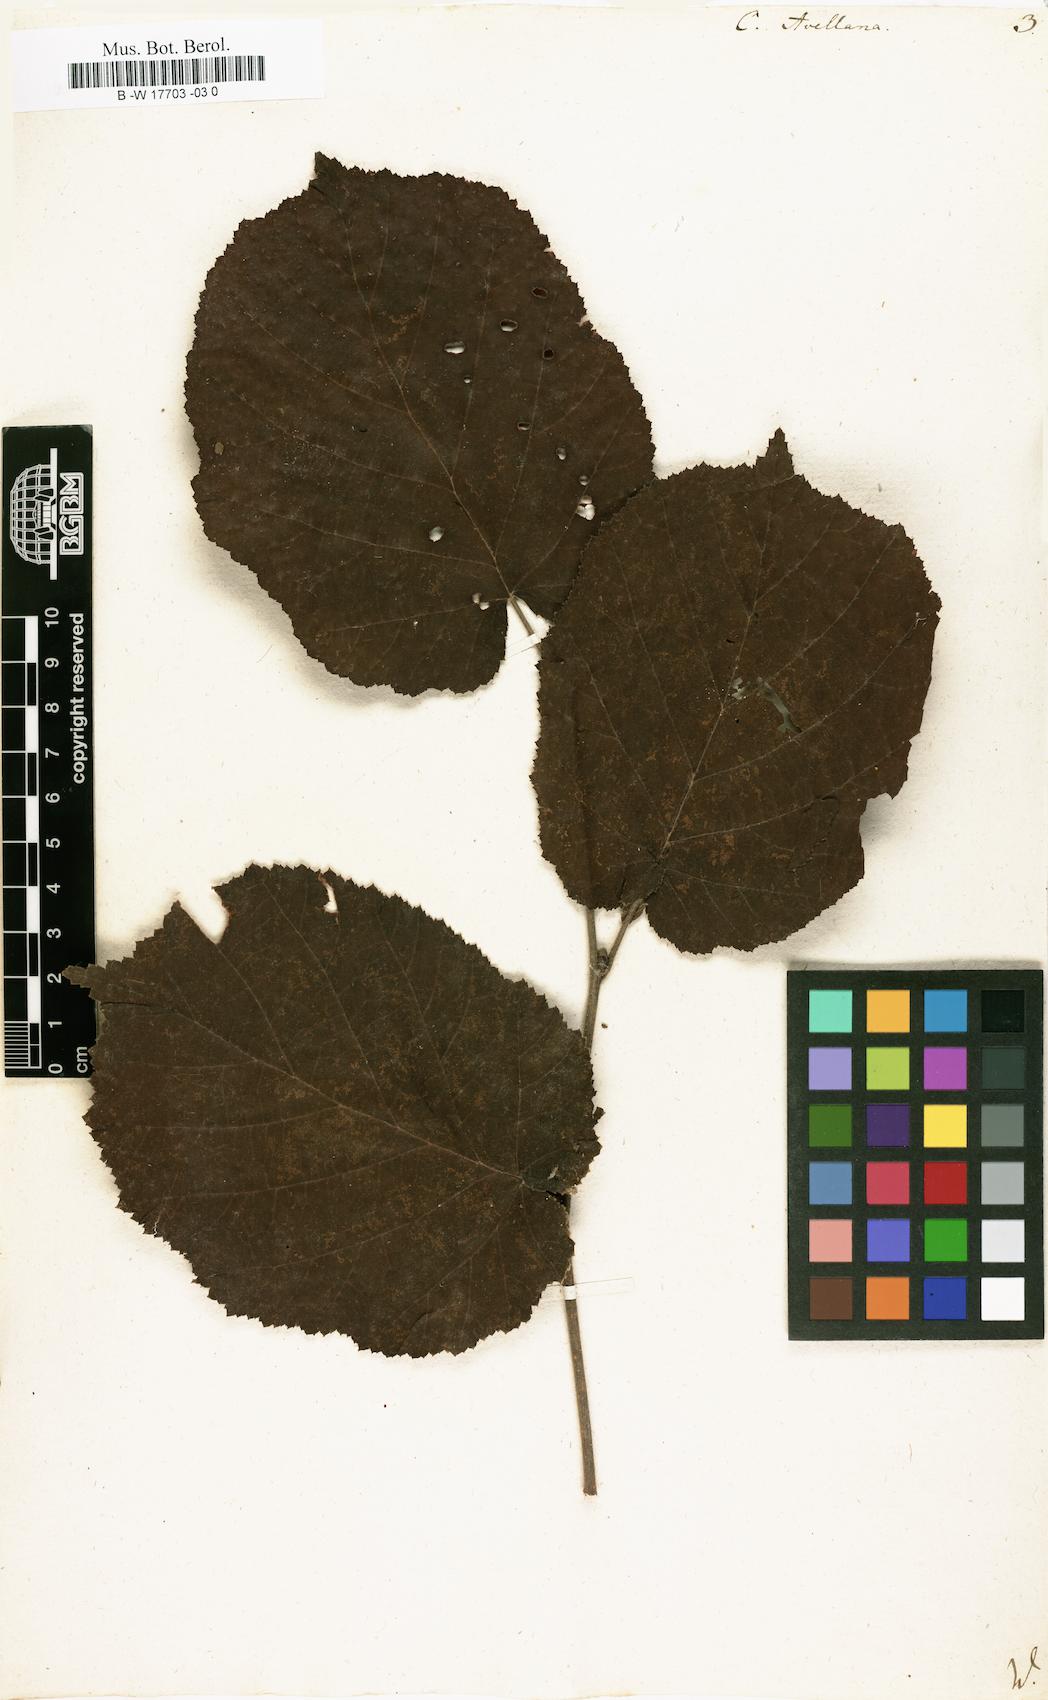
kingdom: Plantae
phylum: Tracheophyta
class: Magnoliopsida
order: Fagales
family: Betulaceae
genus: Corylus
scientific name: Corylus avellana
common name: European hazel
